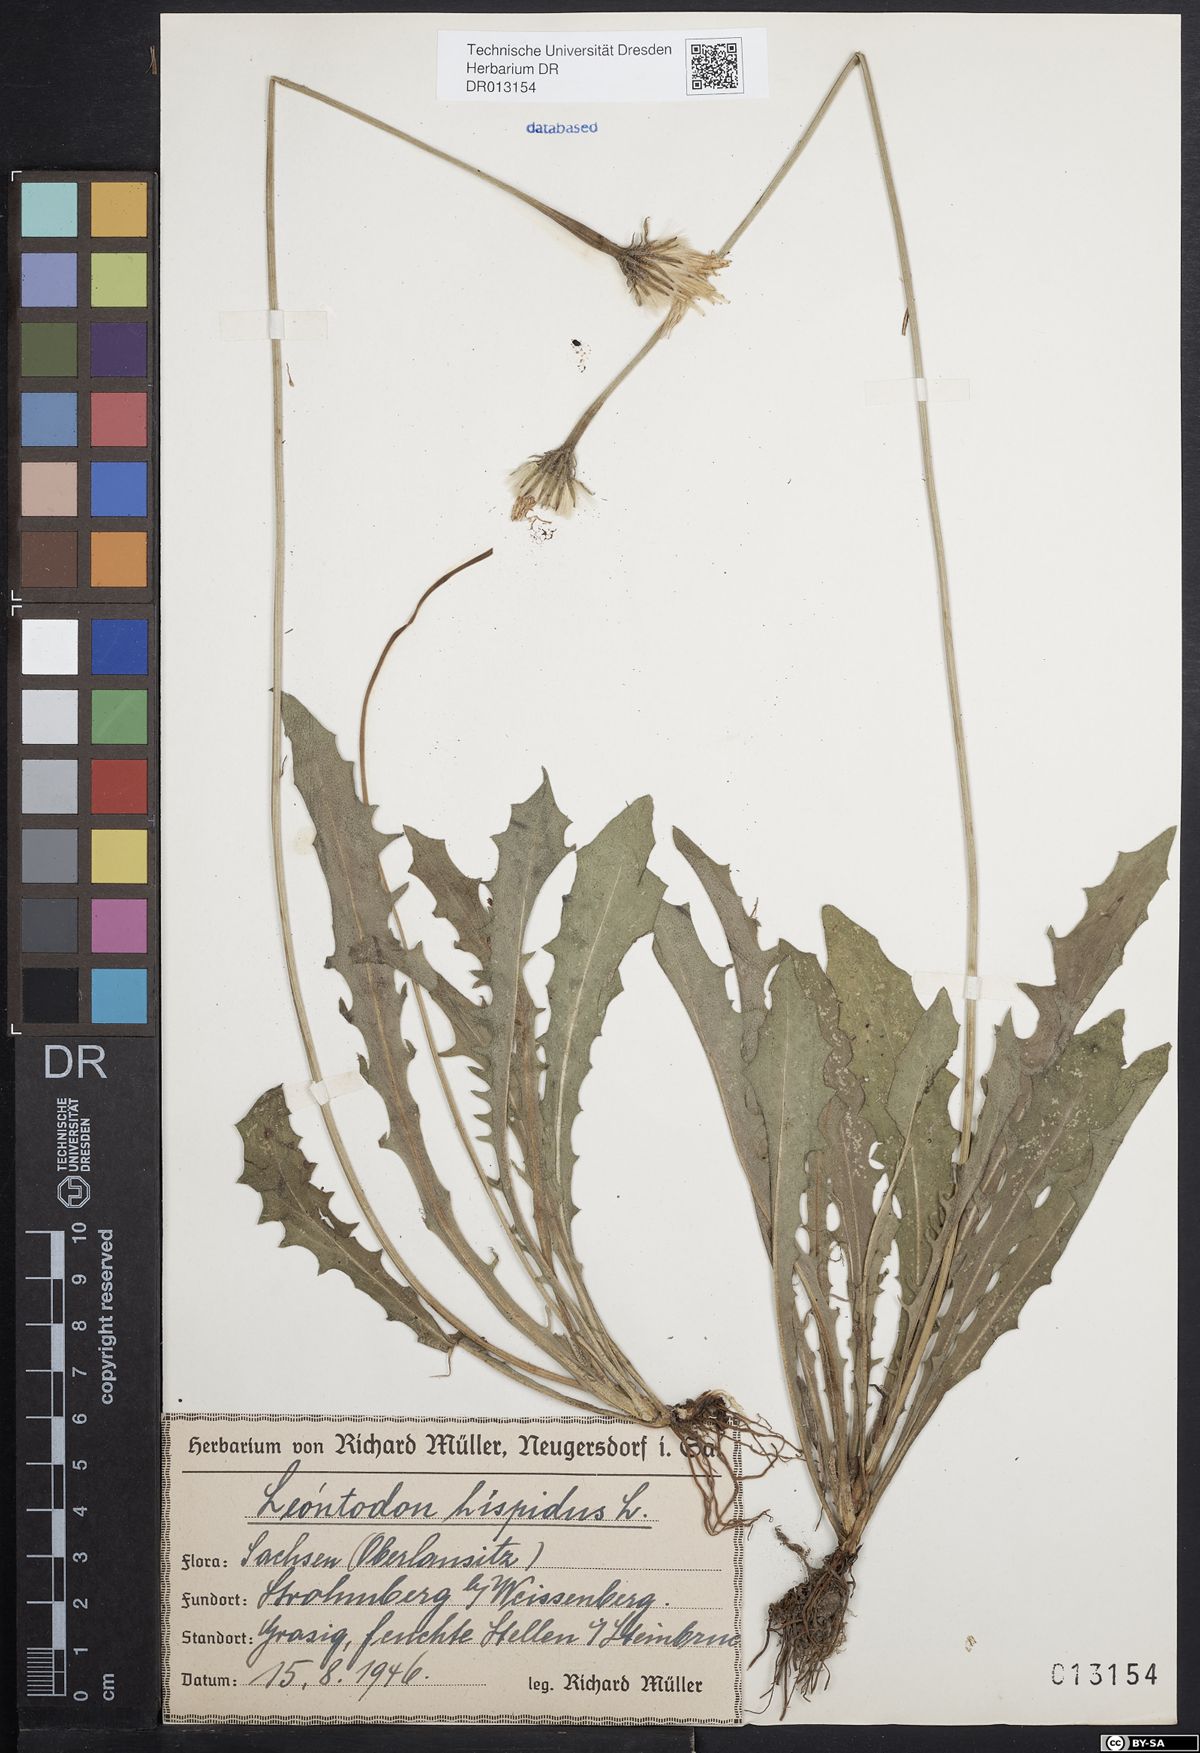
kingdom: Plantae
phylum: Tracheophyta
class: Magnoliopsida
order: Asterales
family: Asteraceae
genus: Leontodon
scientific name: Leontodon hispidus
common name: Rough hawkbit
